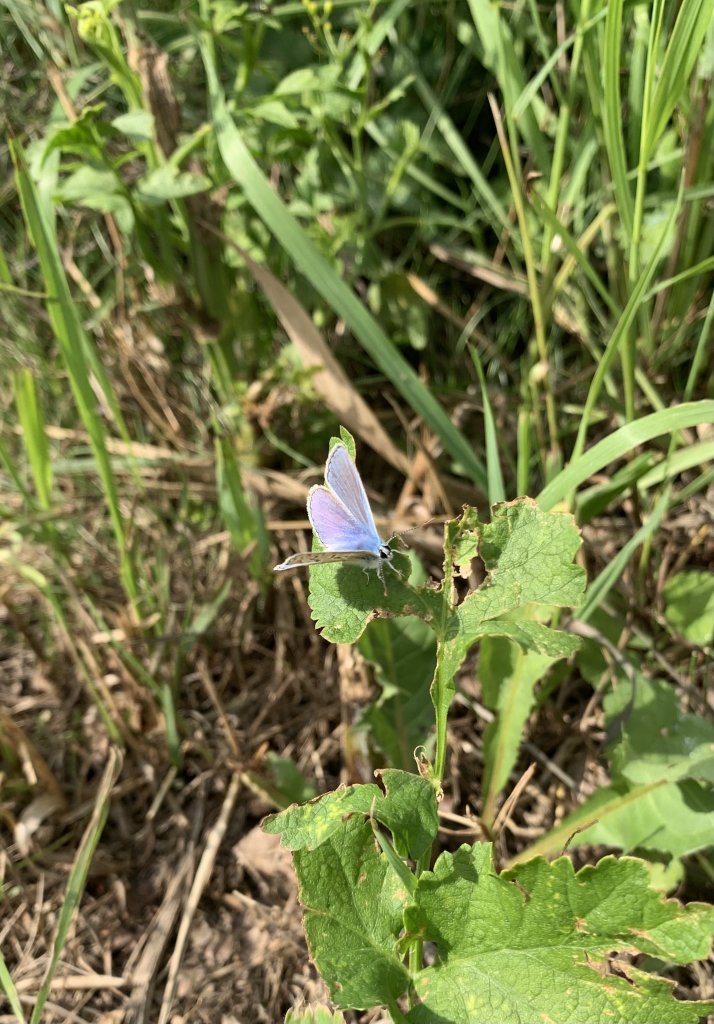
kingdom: Animalia
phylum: Arthropoda
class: Insecta
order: Lepidoptera
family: Lycaenidae
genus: Polyommatus
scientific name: Polyommatus icarus
